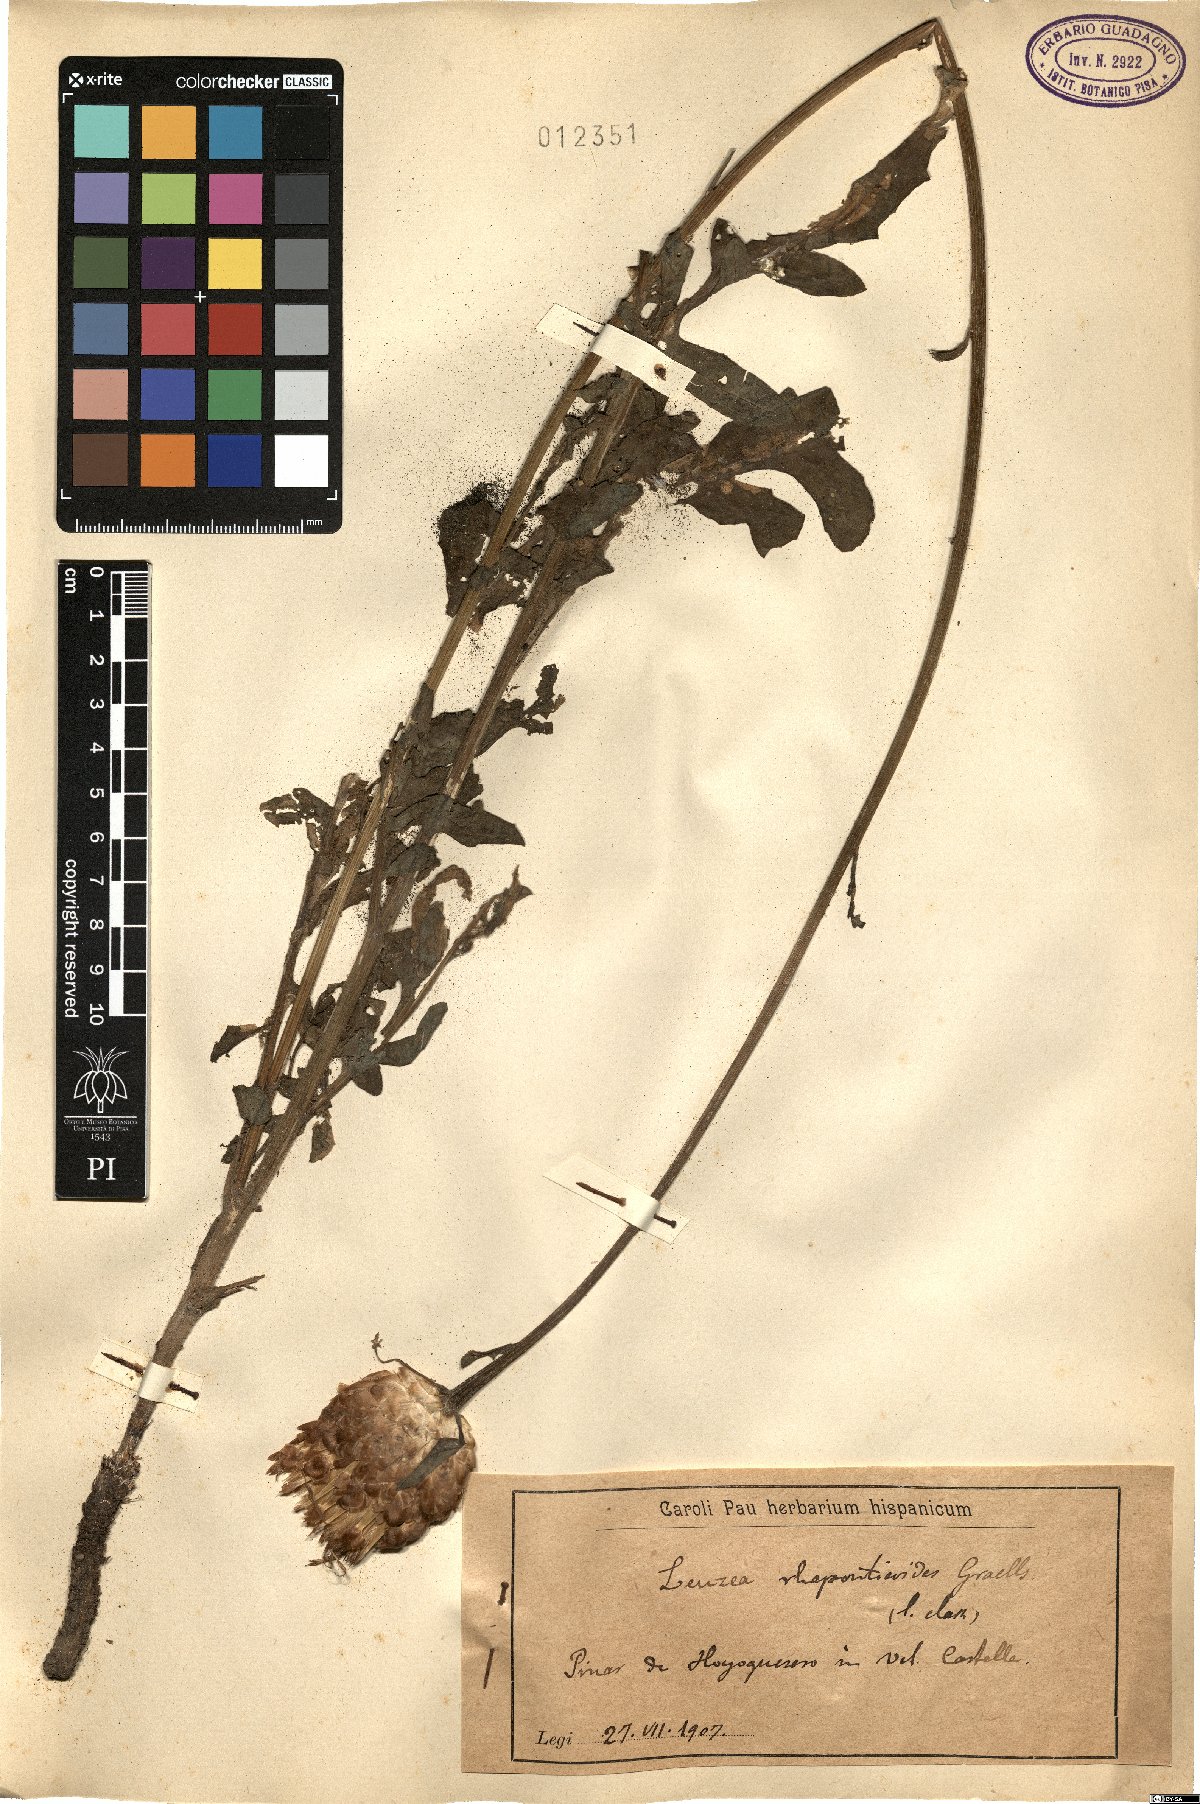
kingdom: Plantae
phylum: Tracheophyta
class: Magnoliopsida
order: Asterales
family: Asteraceae
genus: Leuzea
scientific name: Leuzea exaltata
